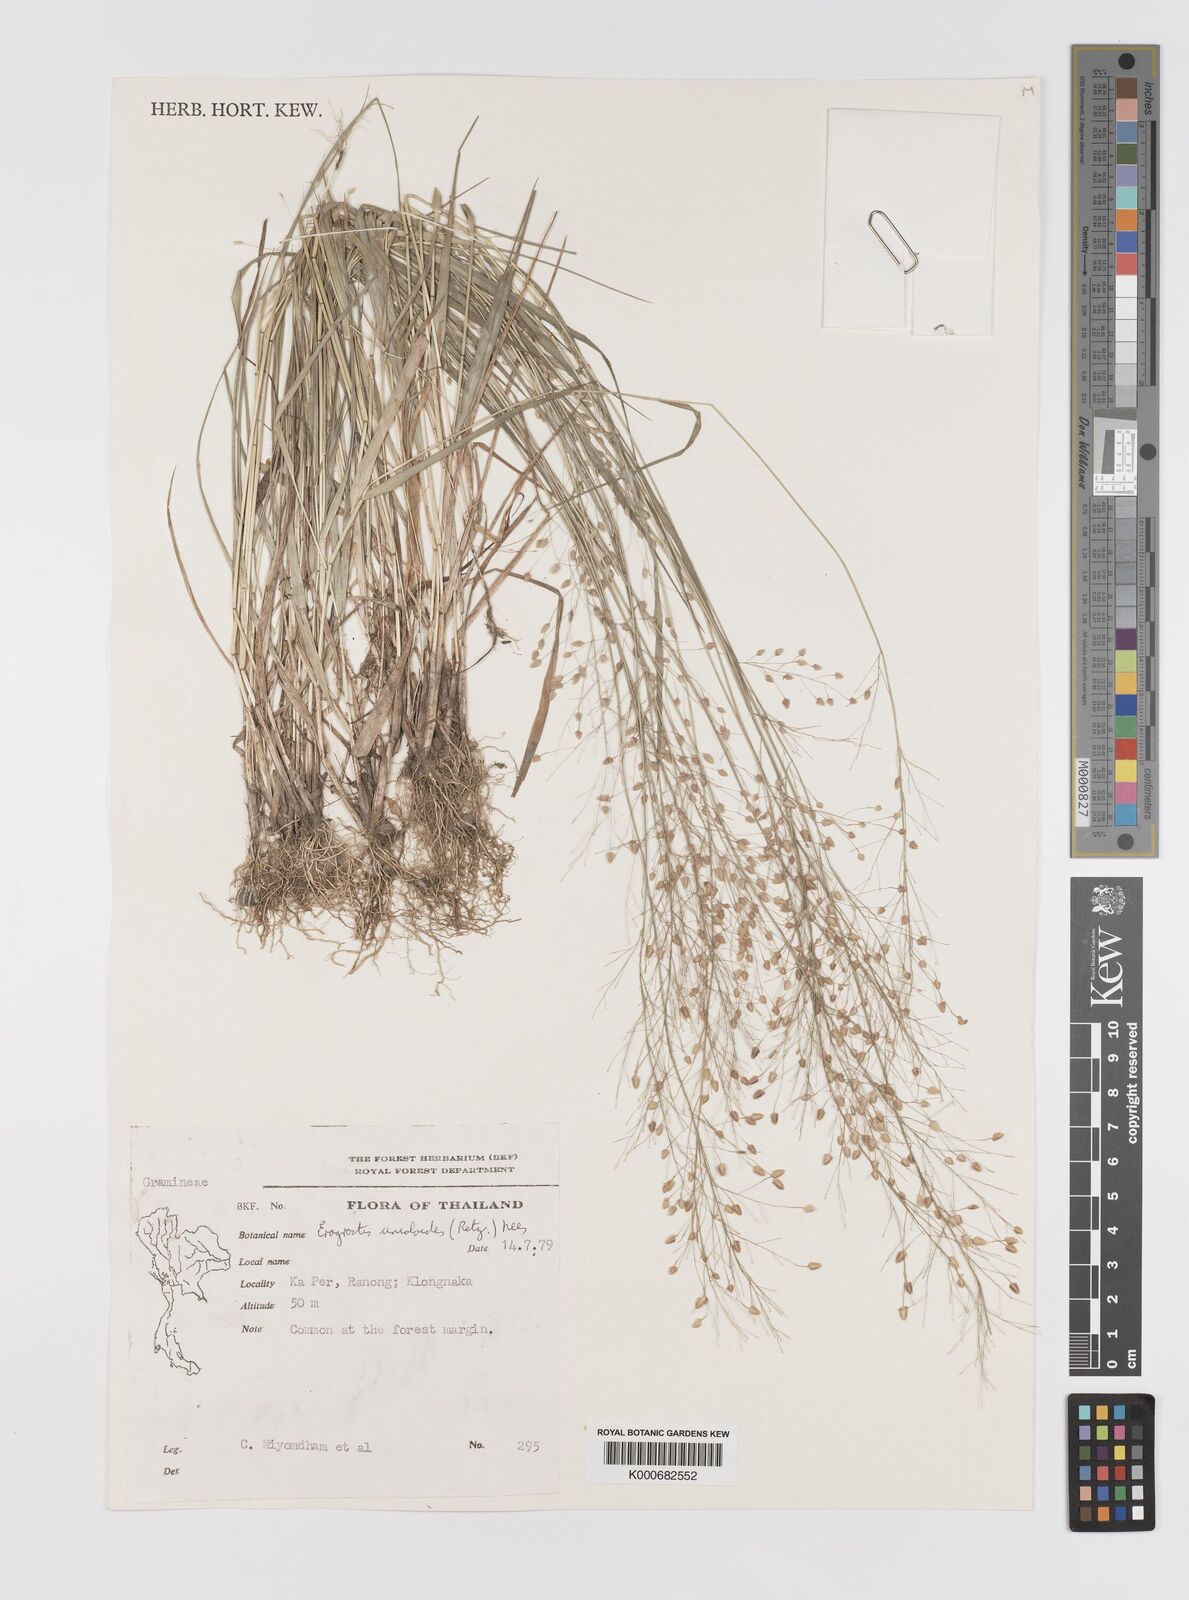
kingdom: Plantae
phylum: Tracheophyta
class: Liliopsida
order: Poales
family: Poaceae
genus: Eragrostis
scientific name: Eragrostis unioloides
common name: Chinese lovegrass
